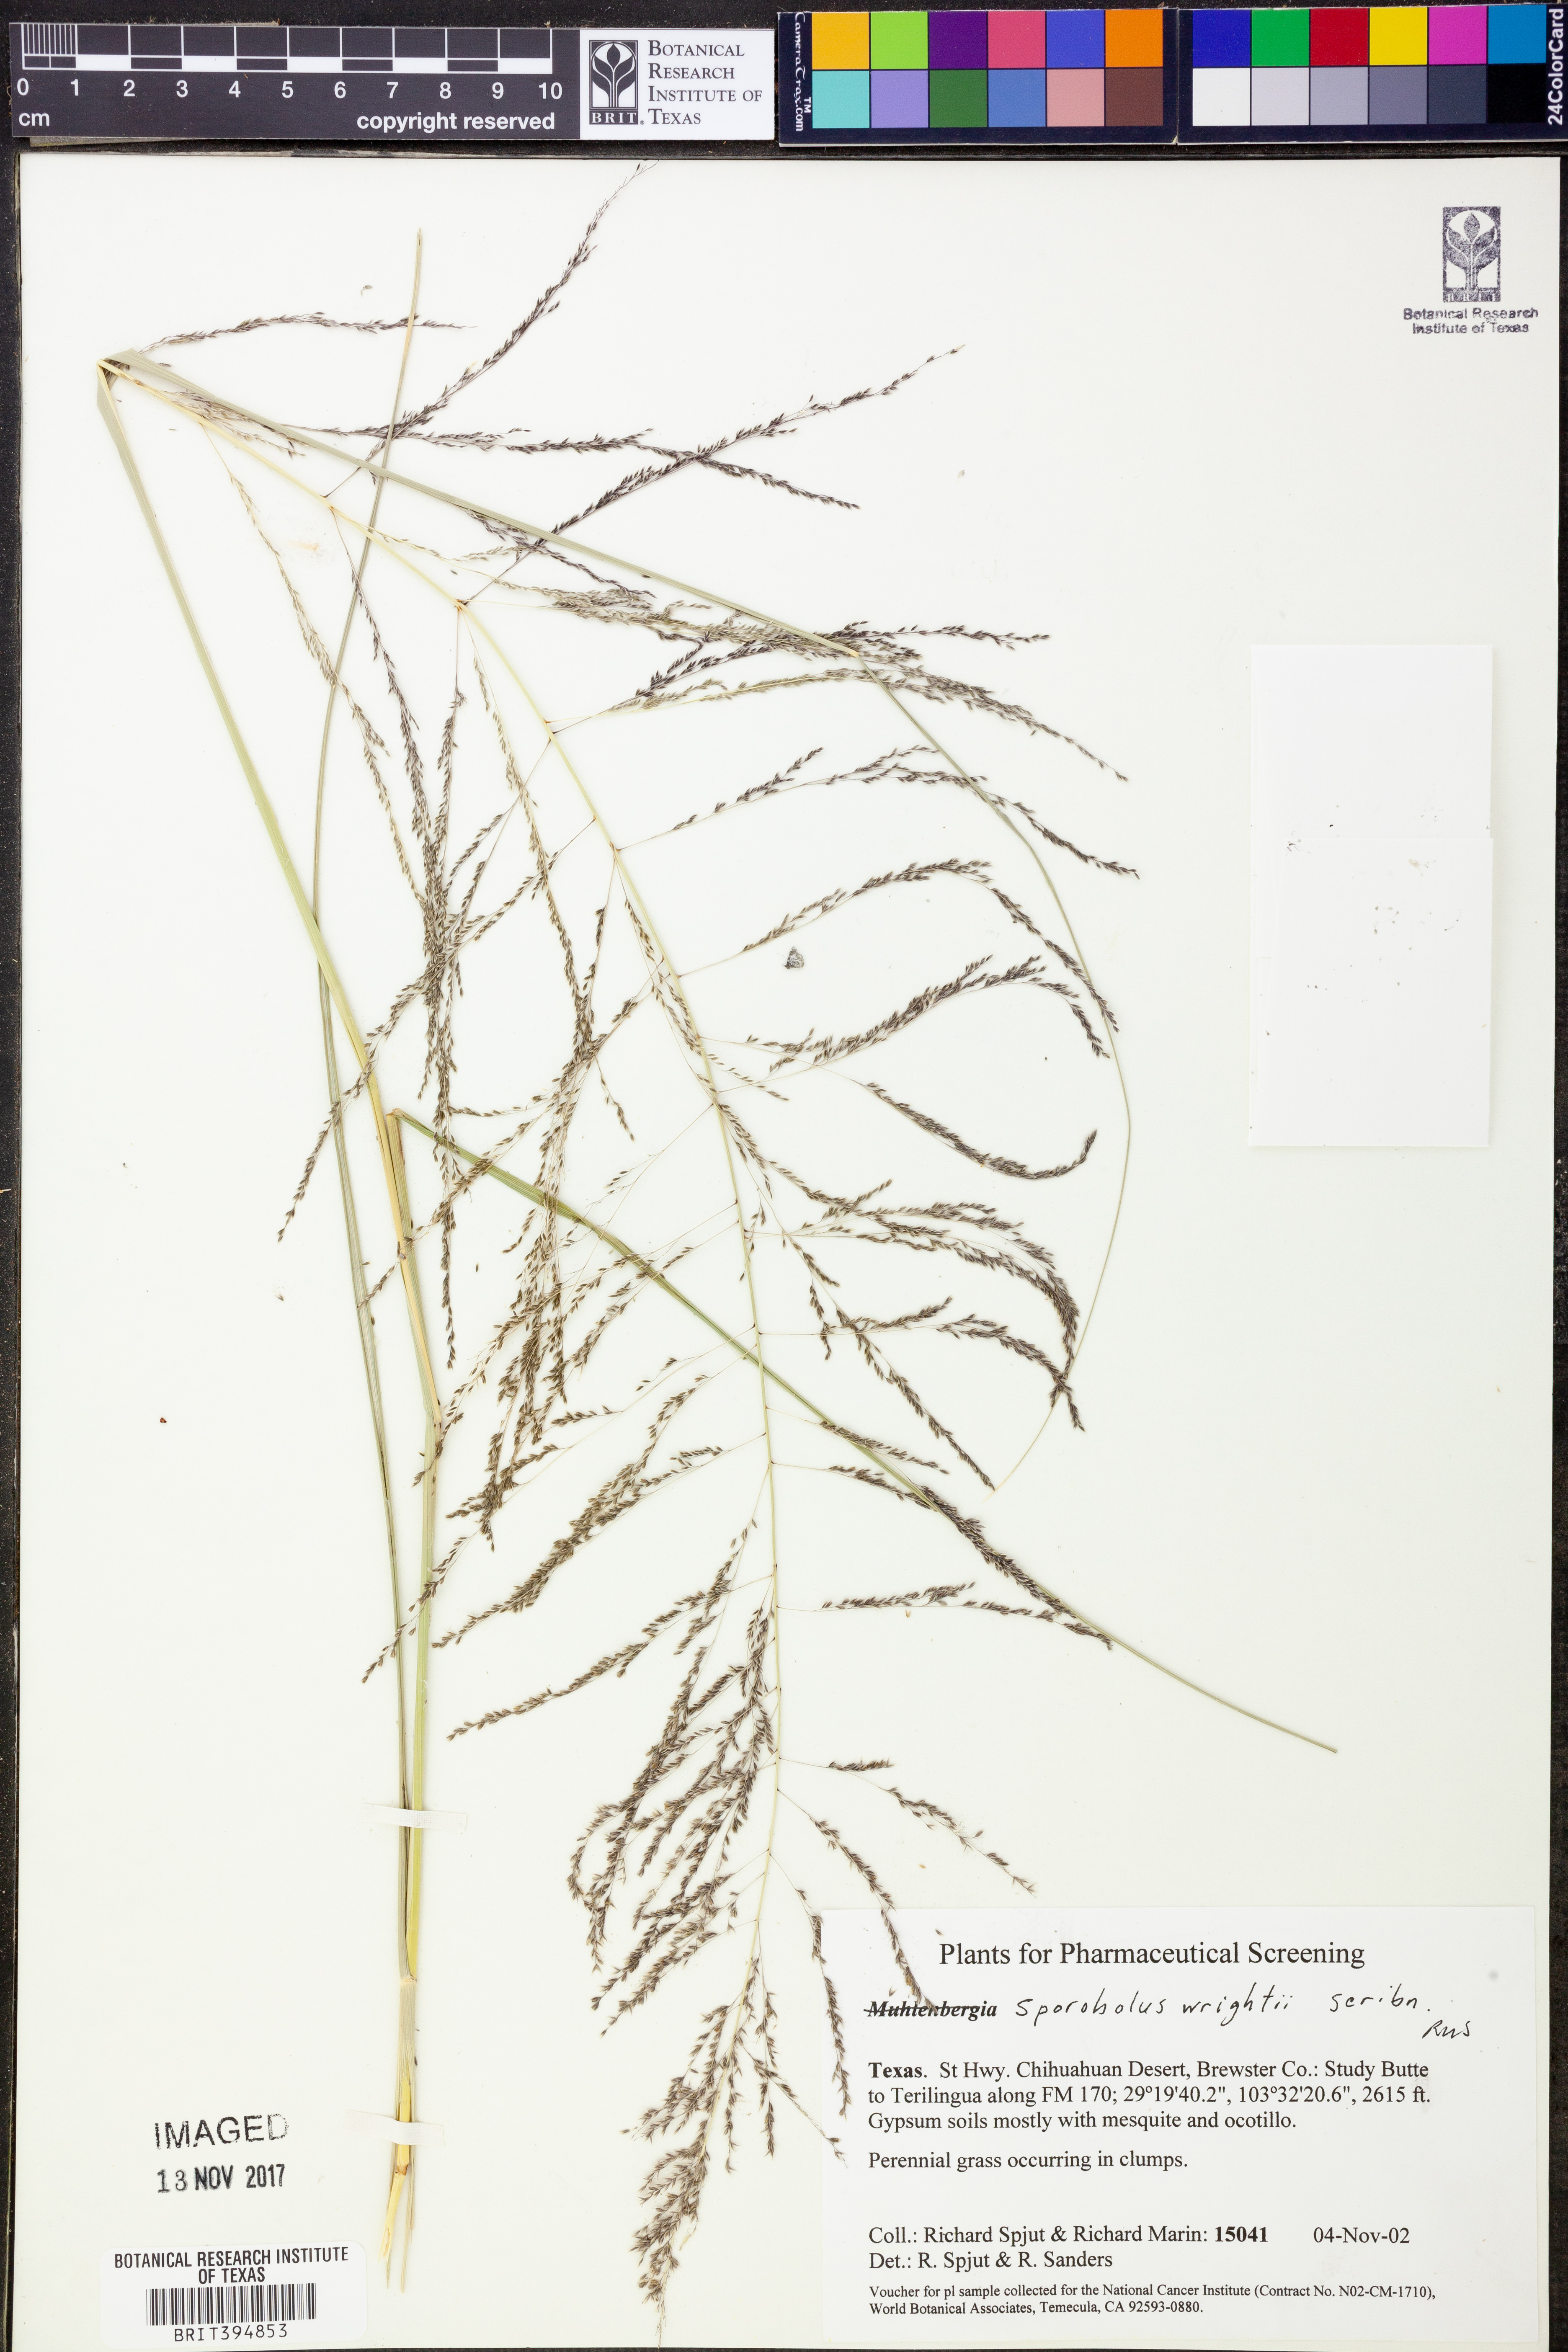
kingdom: Plantae
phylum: Tracheophyta
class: Liliopsida
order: Poales
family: Poaceae
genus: Sporobolus
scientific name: Sporobolus wrightii
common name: Big alkali sacaton
